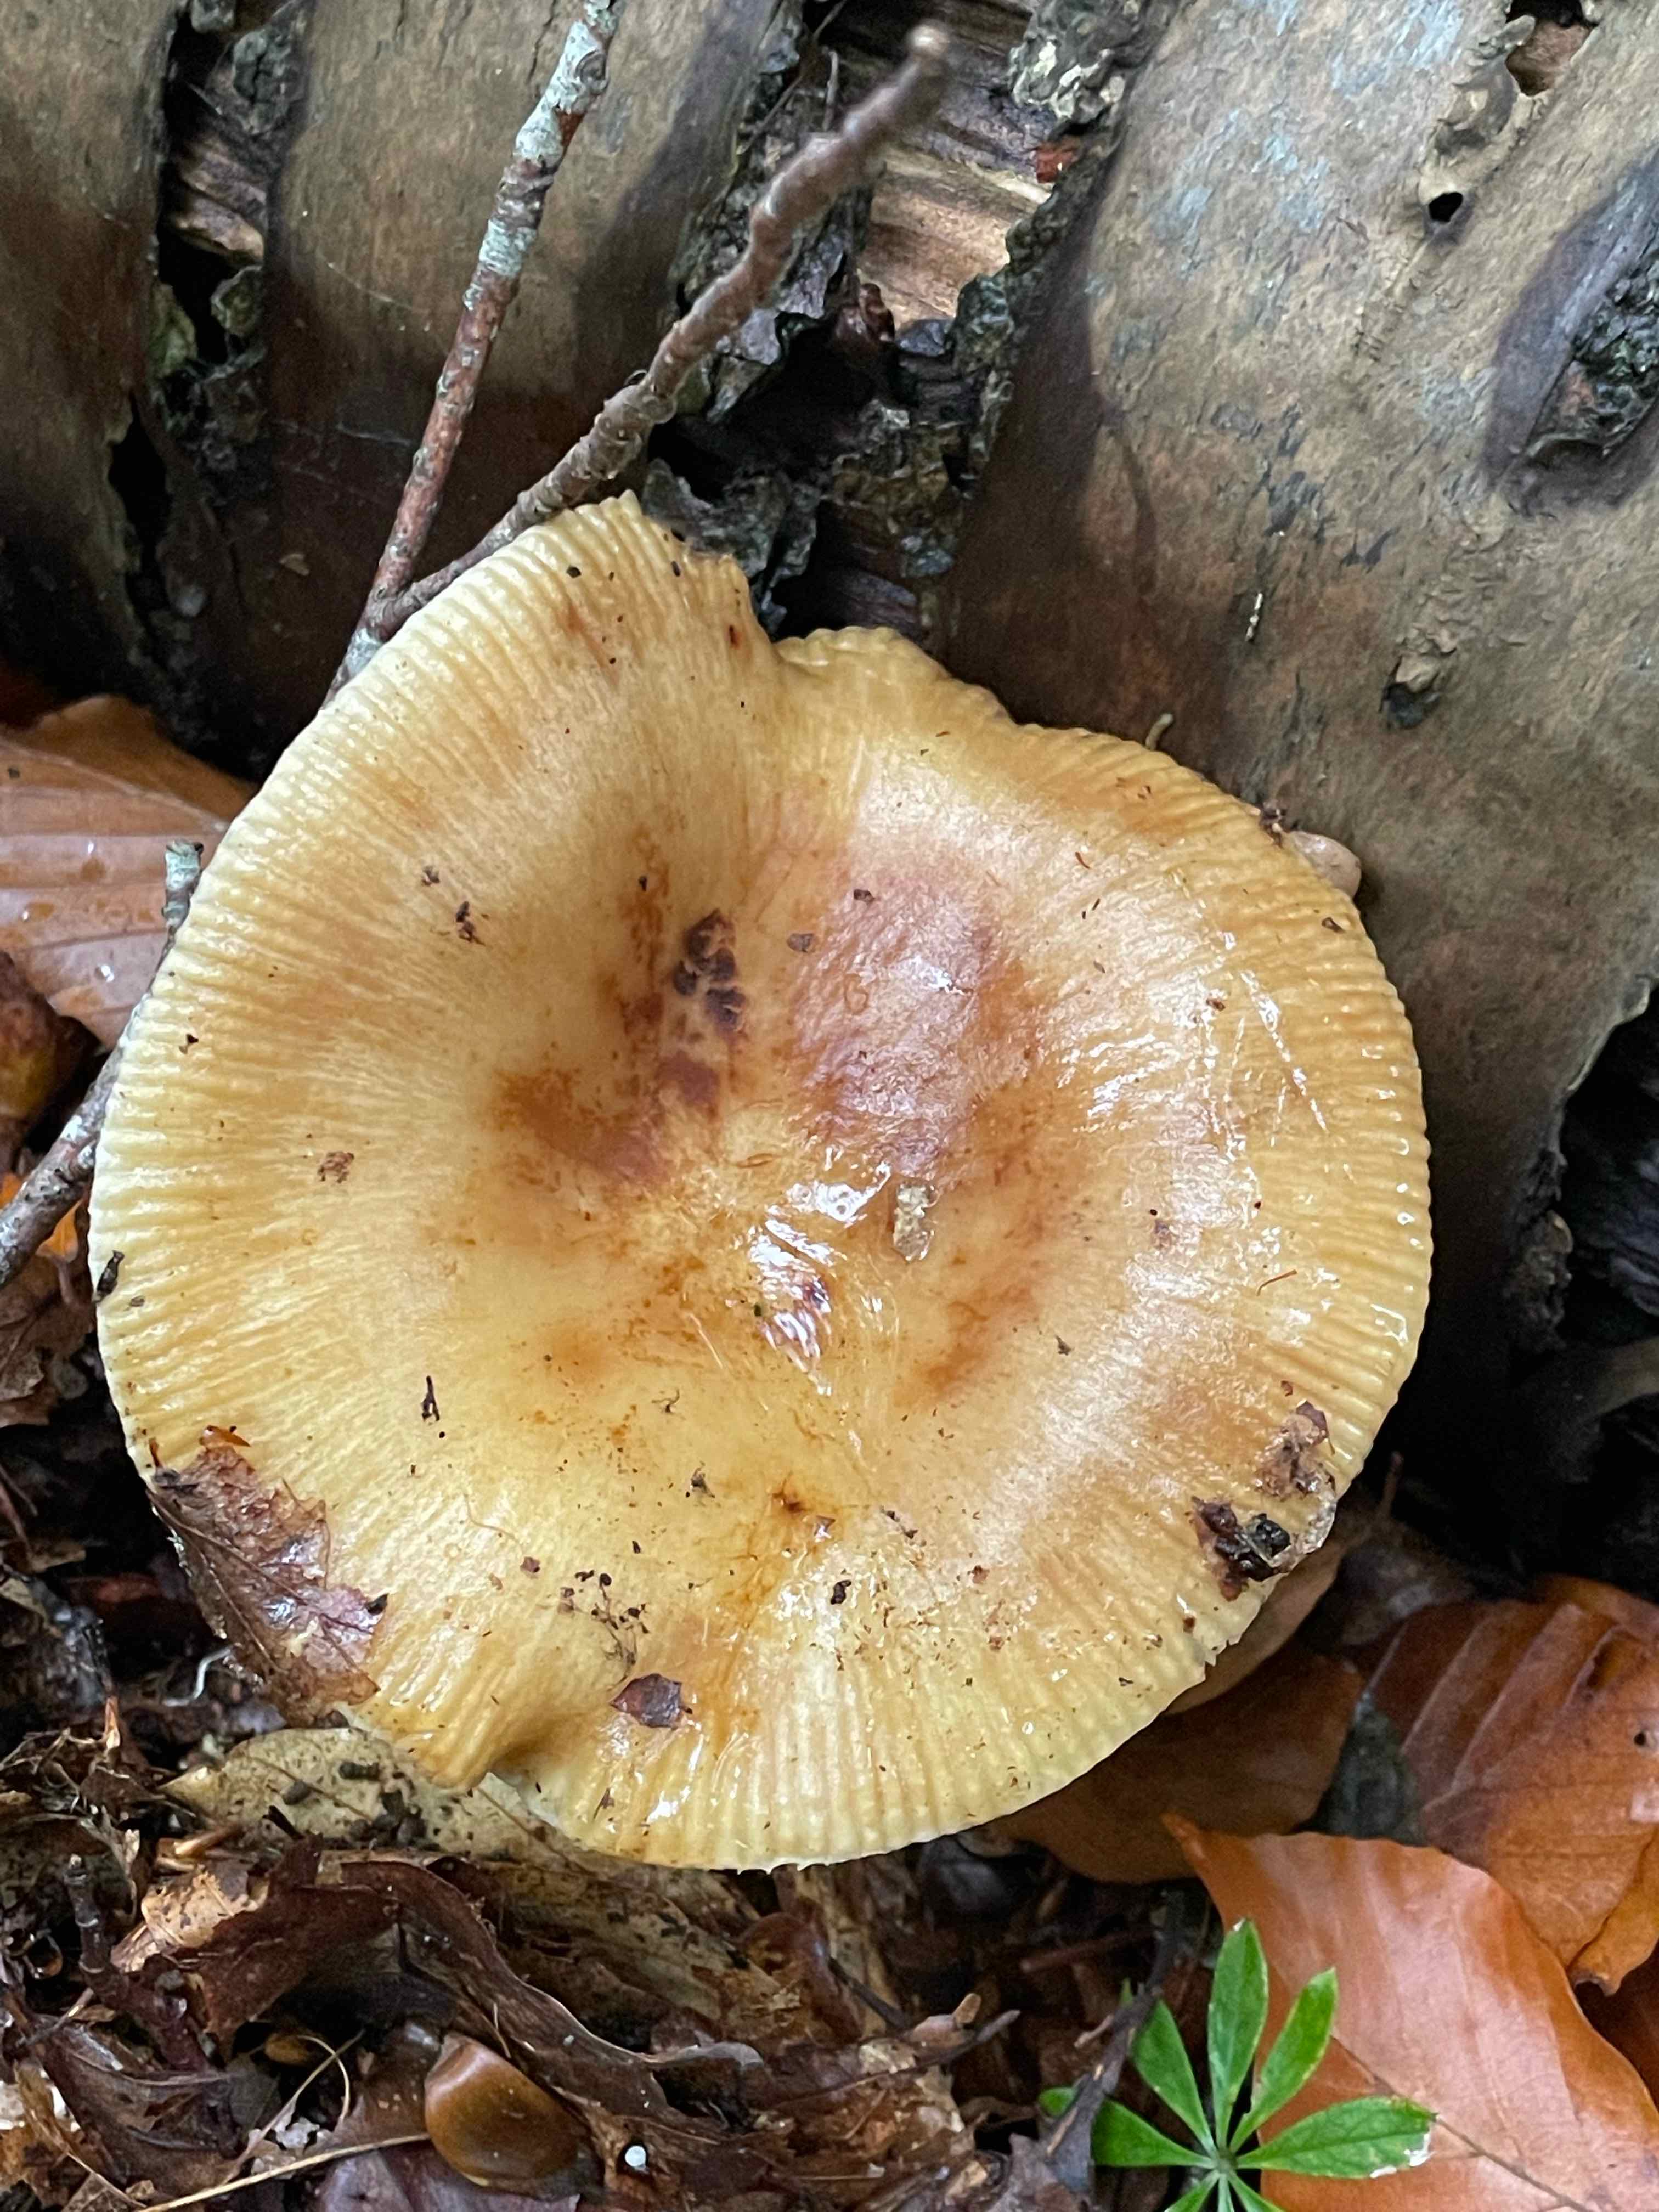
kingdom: Fungi
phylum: Basidiomycota
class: Agaricomycetes
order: Russulales
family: Russulaceae
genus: Russula
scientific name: Russula grata
